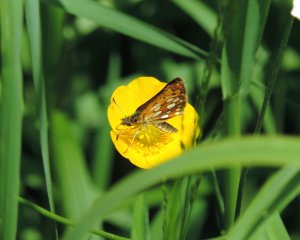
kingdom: Animalia
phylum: Arthropoda
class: Insecta
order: Lepidoptera
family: Hesperiidae
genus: Carterocephalus
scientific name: Carterocephalus palaemon
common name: Chequered Skipper
